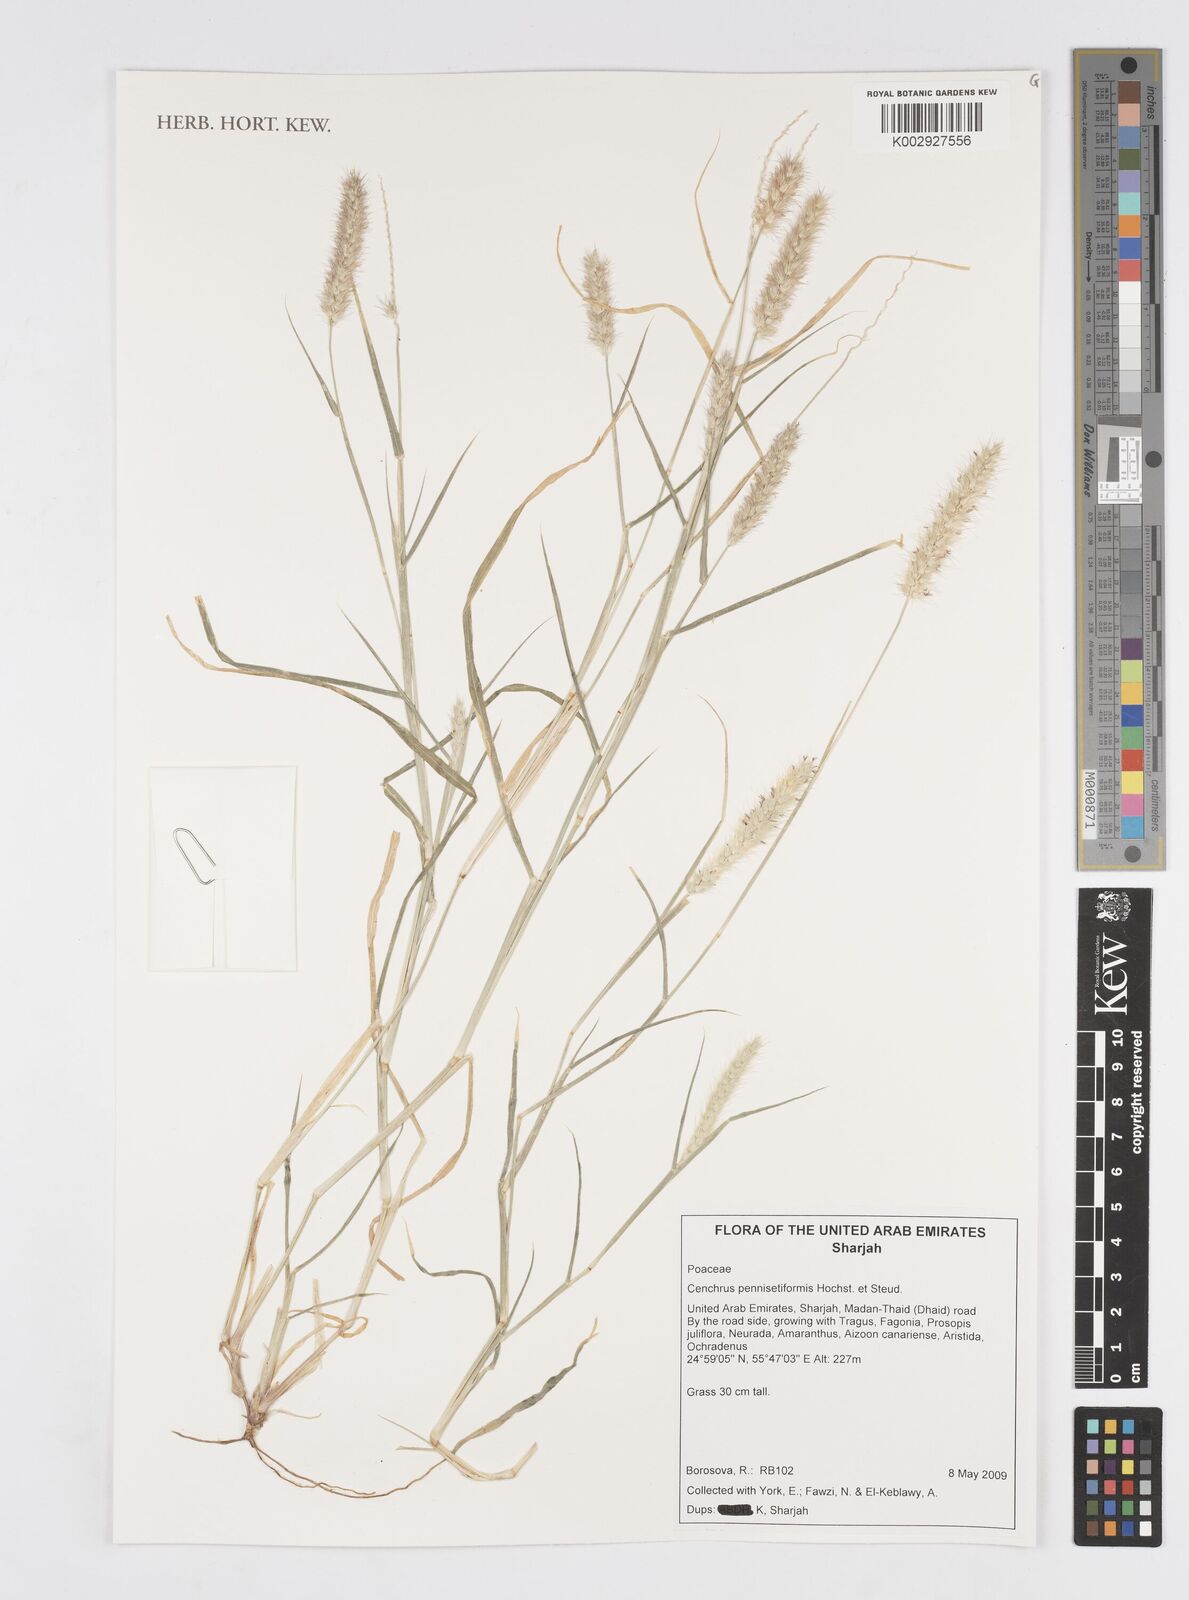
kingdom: Plantae
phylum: Tracheophyta
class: Liliopsida
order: Poales
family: Poaceae
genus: Cenchrus
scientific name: Cenchrus pennisetiformis
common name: Cloncurry
